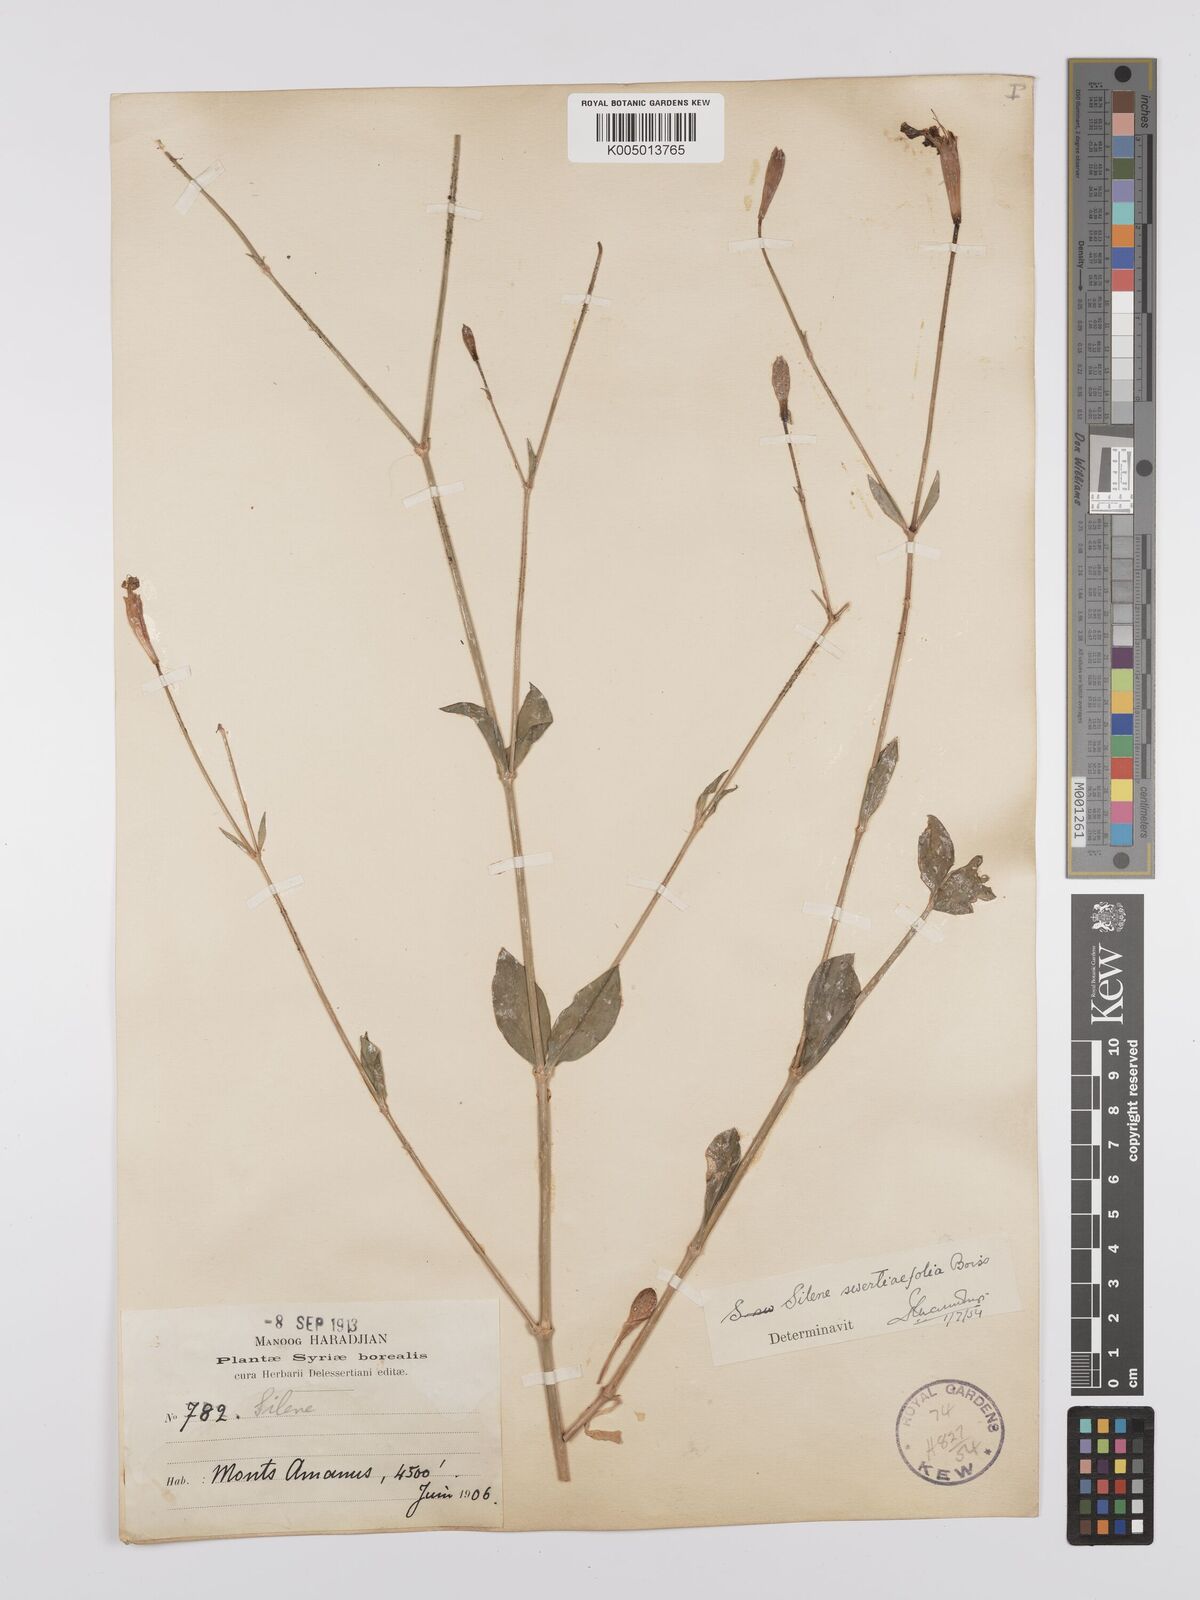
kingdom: Plantae
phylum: Tracheophyta
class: Magnoliopsida
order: Caryophyllales
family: Caryophyllaceae
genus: Silene
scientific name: Silene swertiifolia
